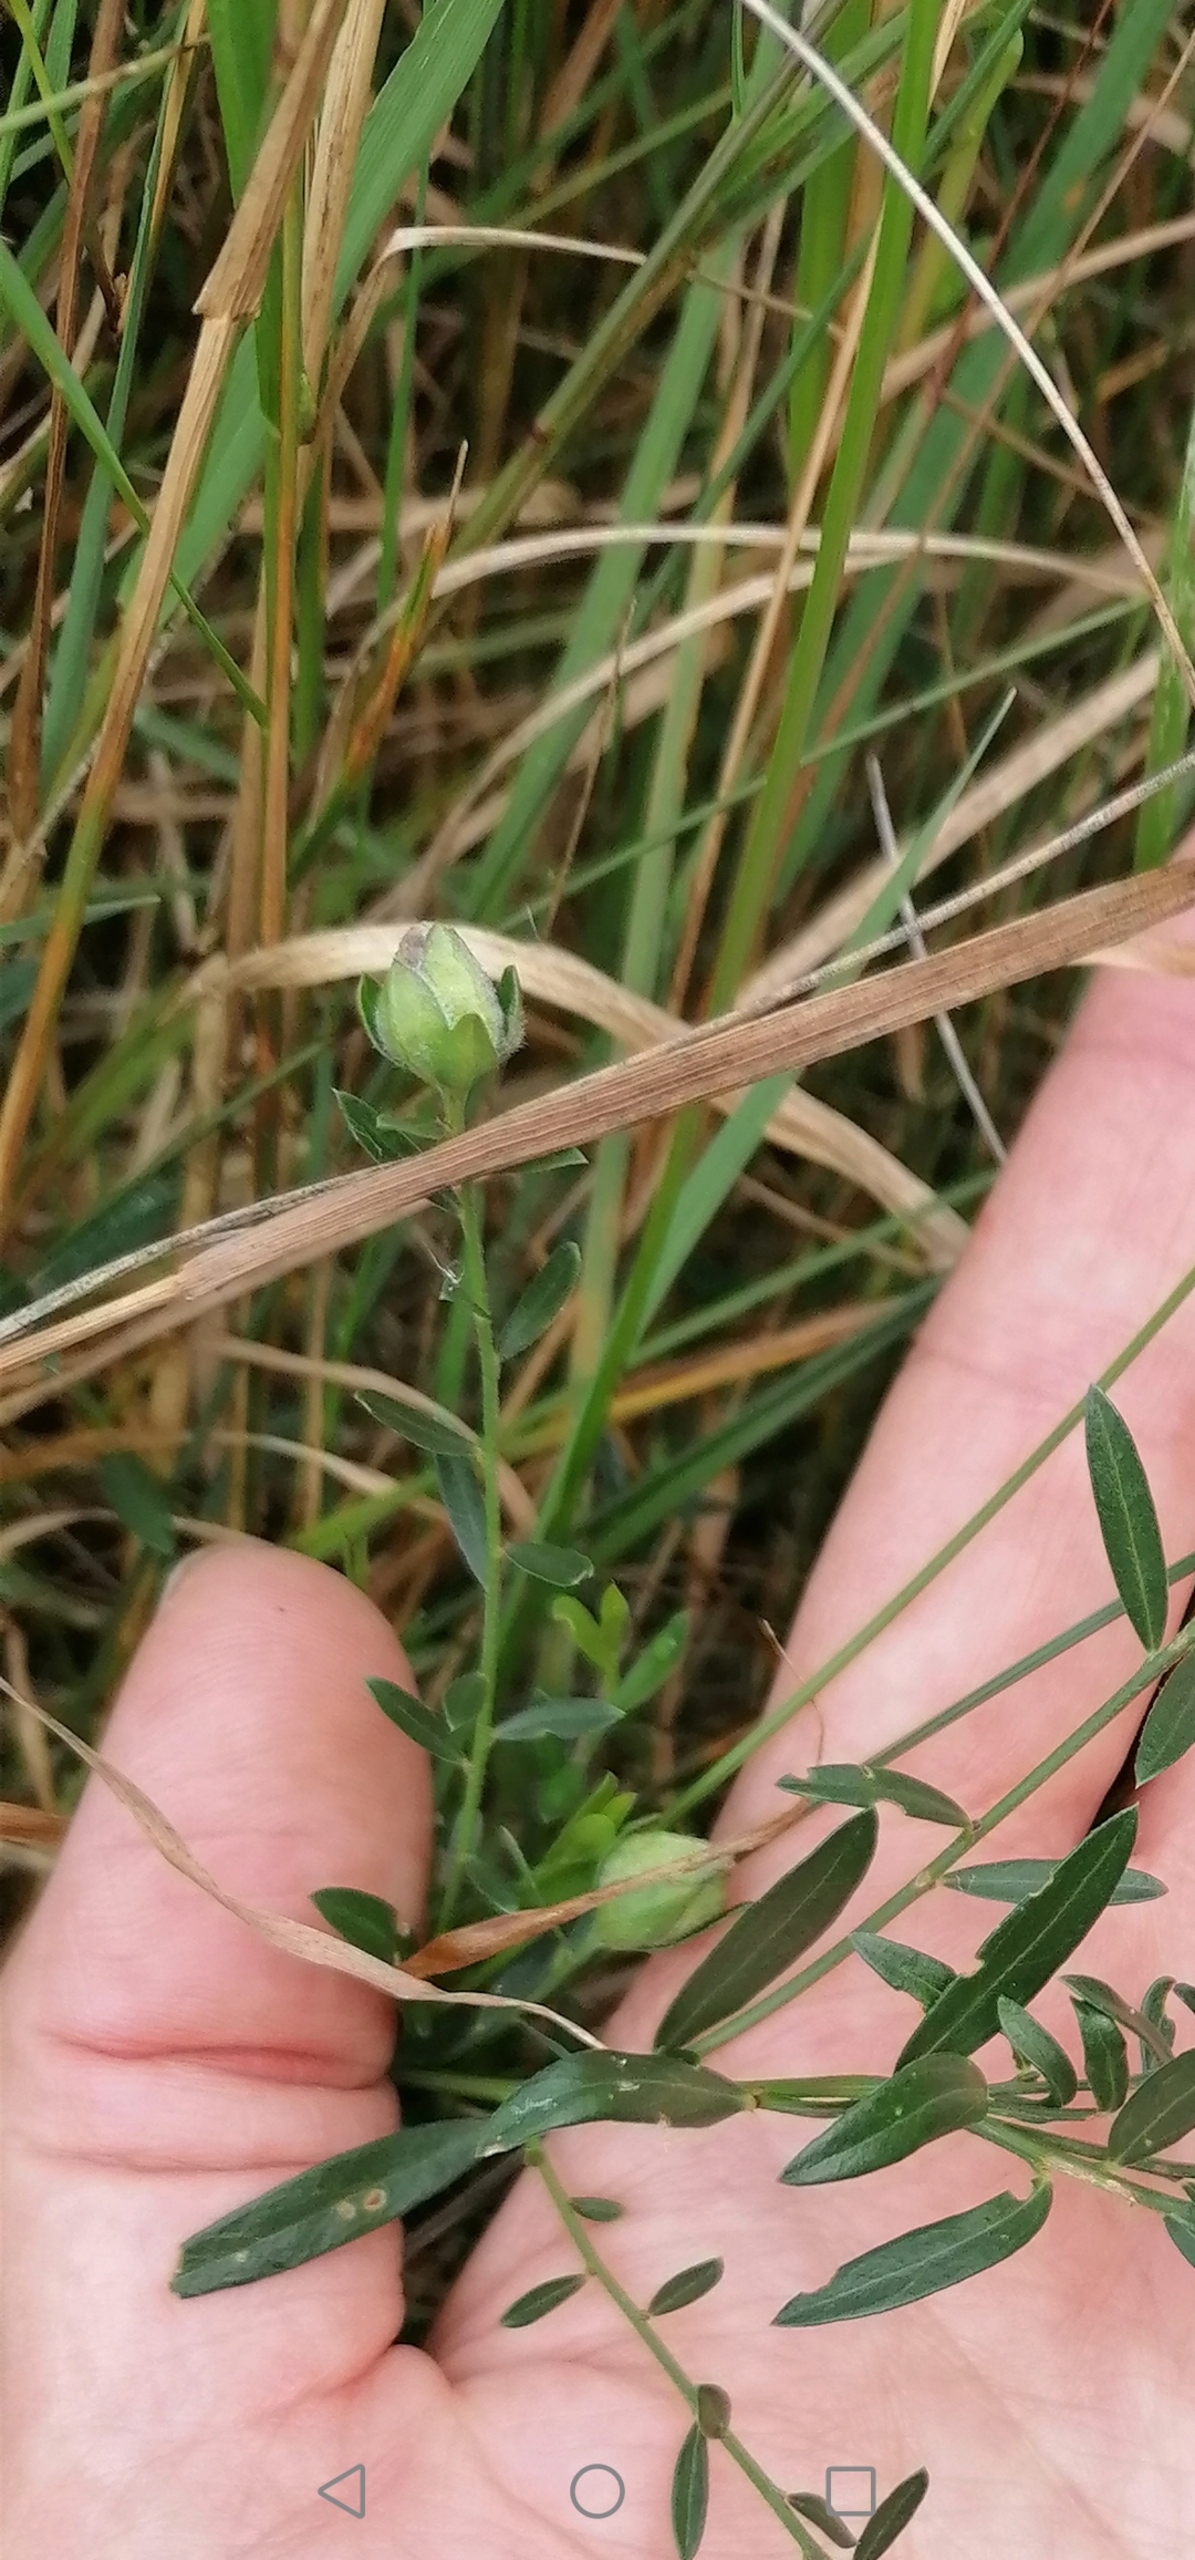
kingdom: Animalia
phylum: Arthropoda
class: Insecta
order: Diptera
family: Cecidomyiidae
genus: Jaapiella
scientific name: Jaapiella genisticola
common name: Farvevissegalmyg
